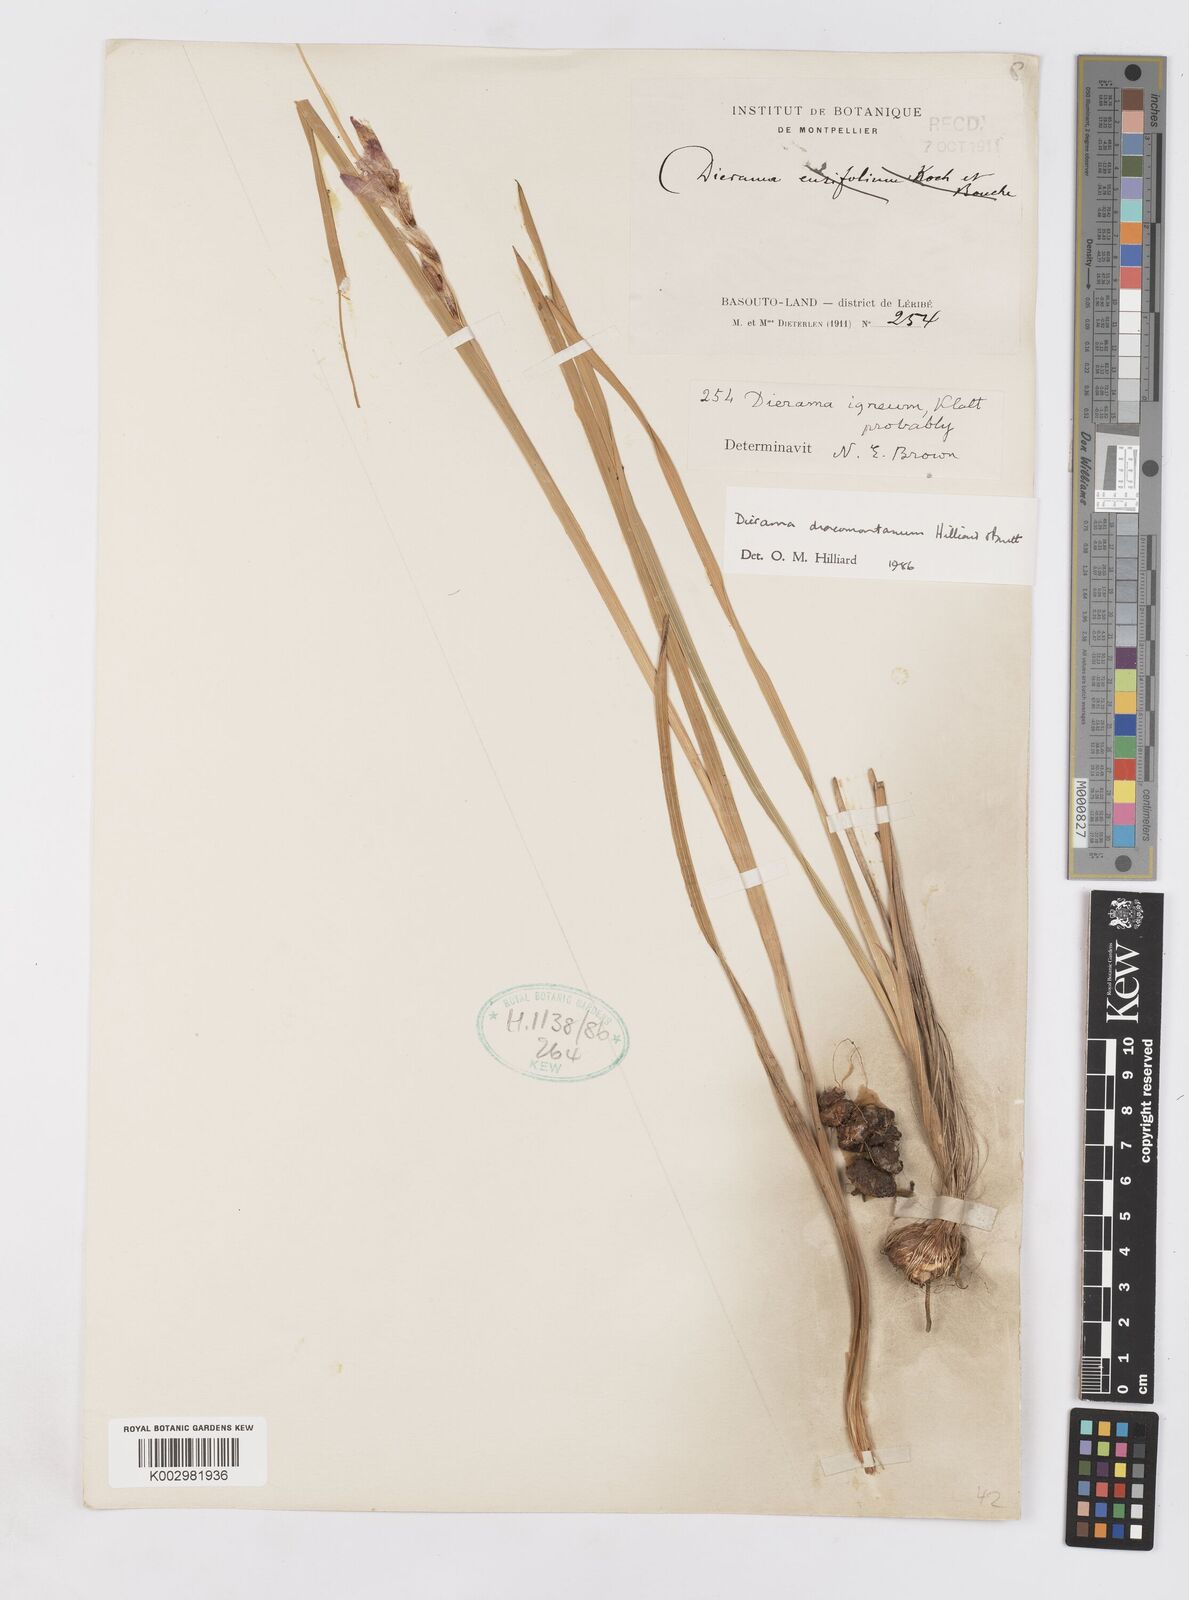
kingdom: Plantae
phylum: Tracheophyta
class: Liliopsida
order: Asparagales
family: Iridaceae
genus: Dierama
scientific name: Dierama dracomontanum
